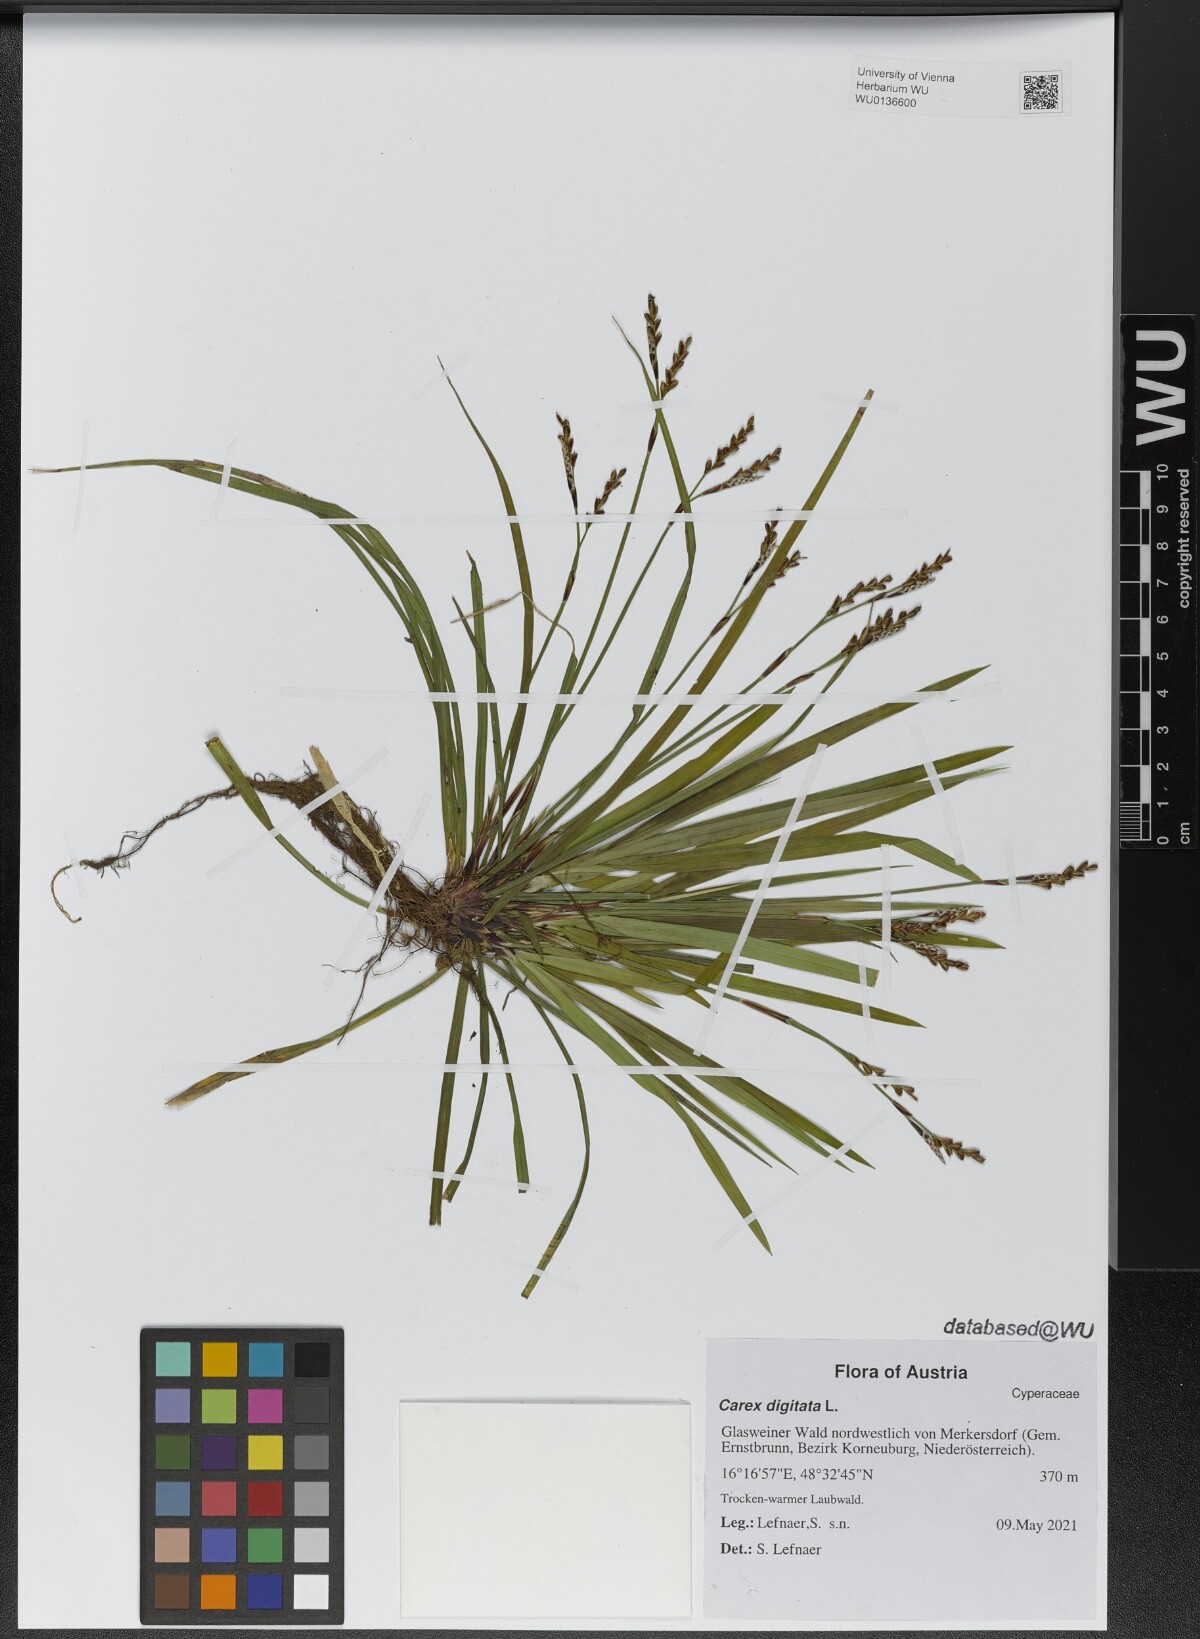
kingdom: Plantae
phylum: Tracheophyta
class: Liliopsida
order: Poales
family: Cyperaceae
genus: Carex
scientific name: Carex digitata
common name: Fingered sedge
